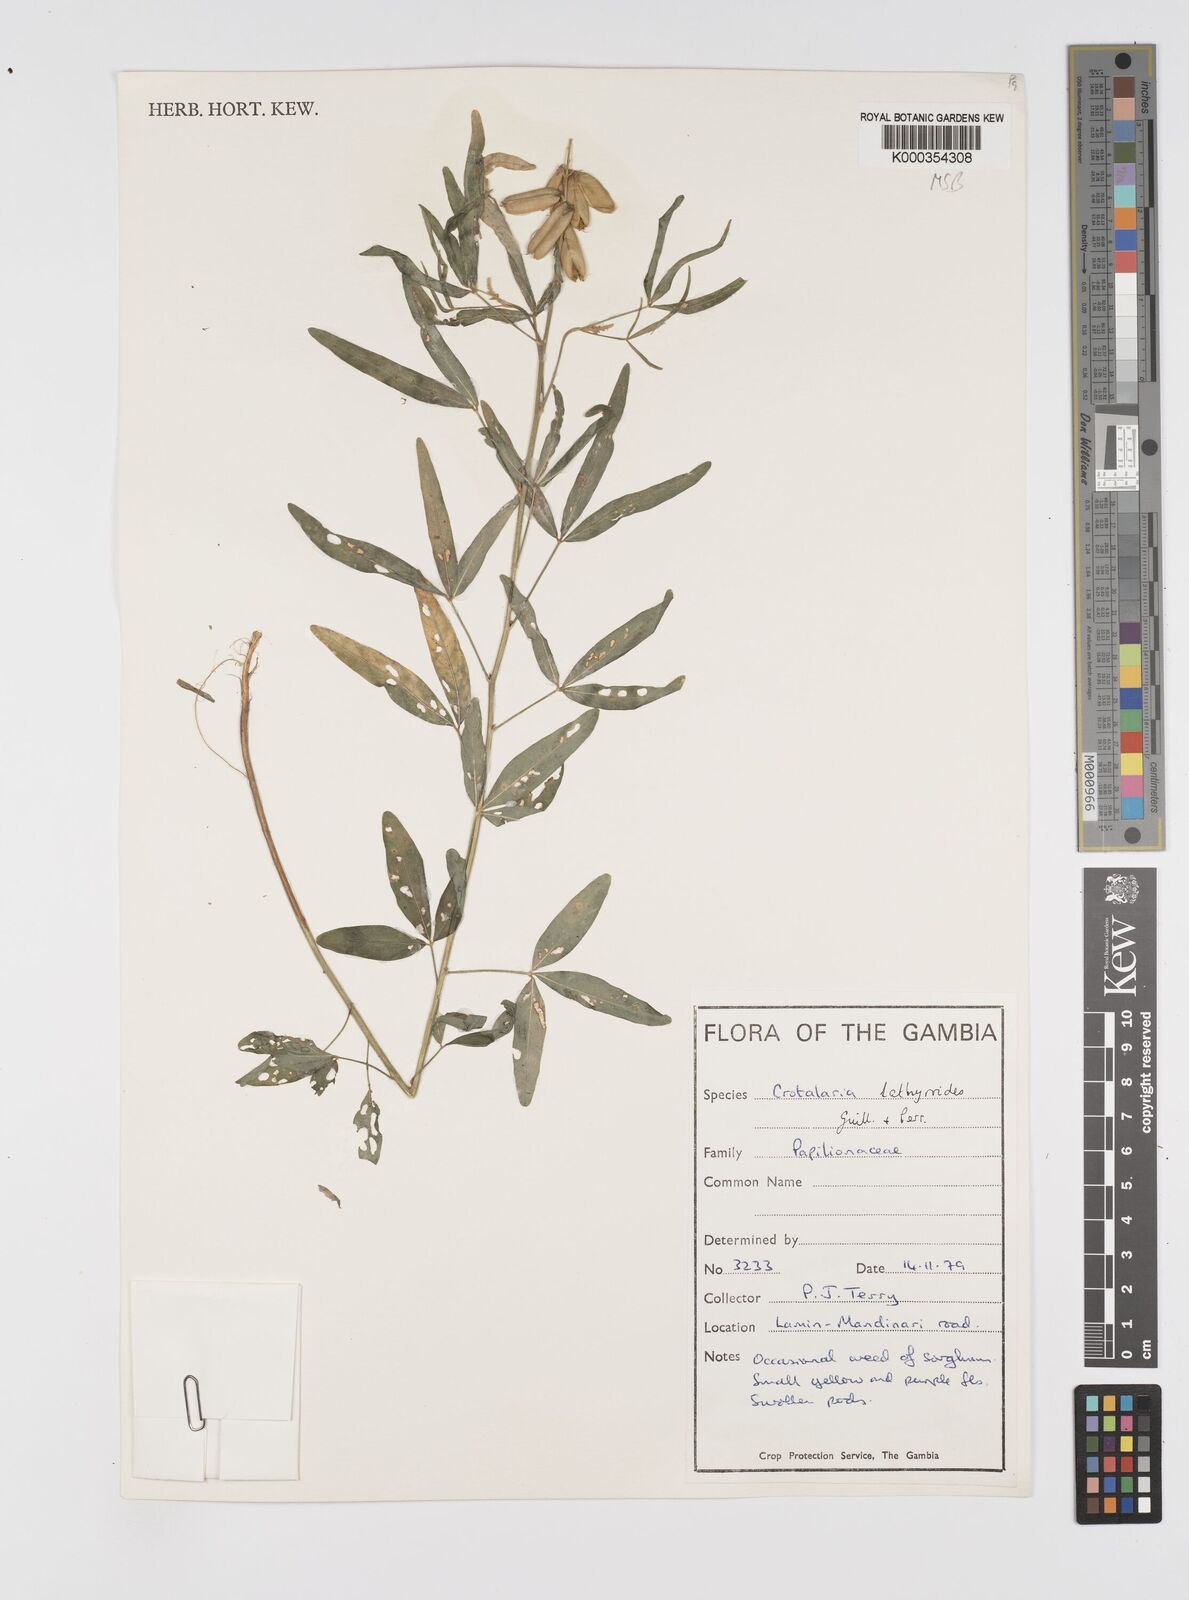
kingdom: Plantae
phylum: Tracheophyta
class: Magnoliopsida
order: Fabales
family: Fabaceae
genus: Crotalaria
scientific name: Crotalaria lathyroides
